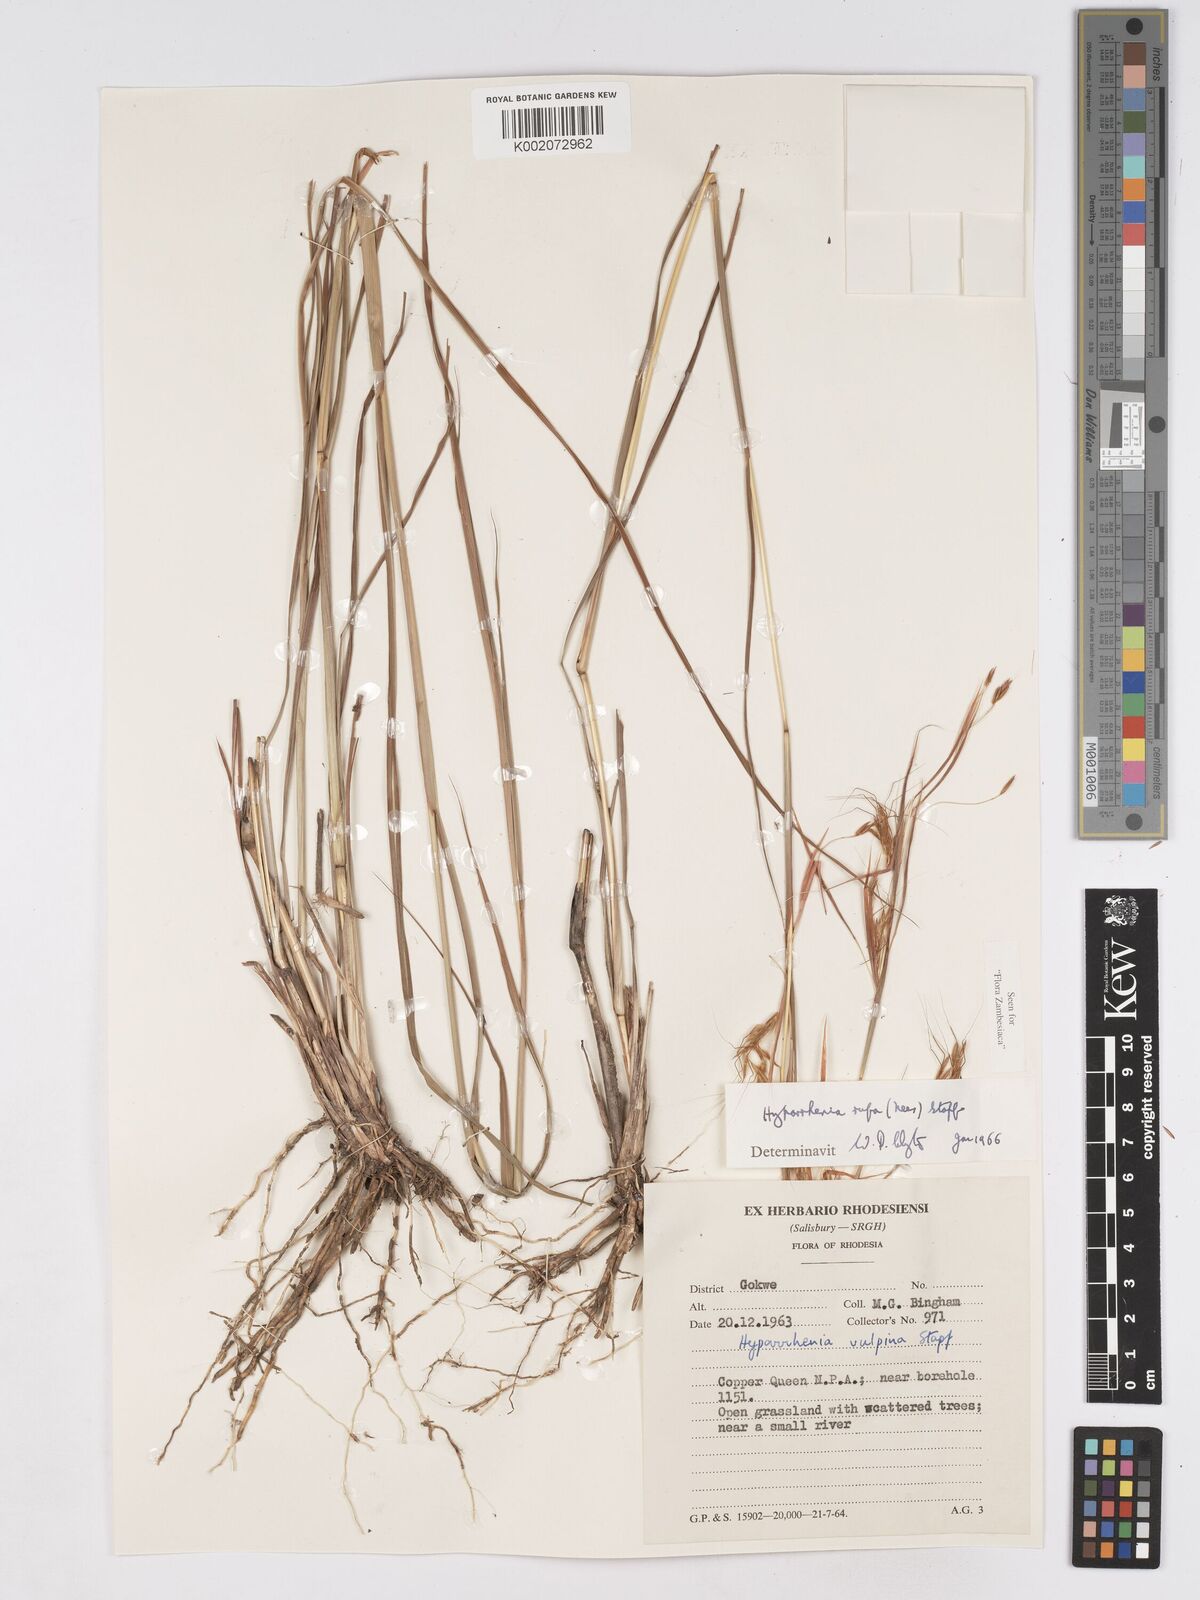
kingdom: Plantae
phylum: Tracheophyta
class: Liliopsida
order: Poales
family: Poaceae
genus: Hyparrhenia
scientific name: Hyparrhenia rufa
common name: Jaraguagrass
